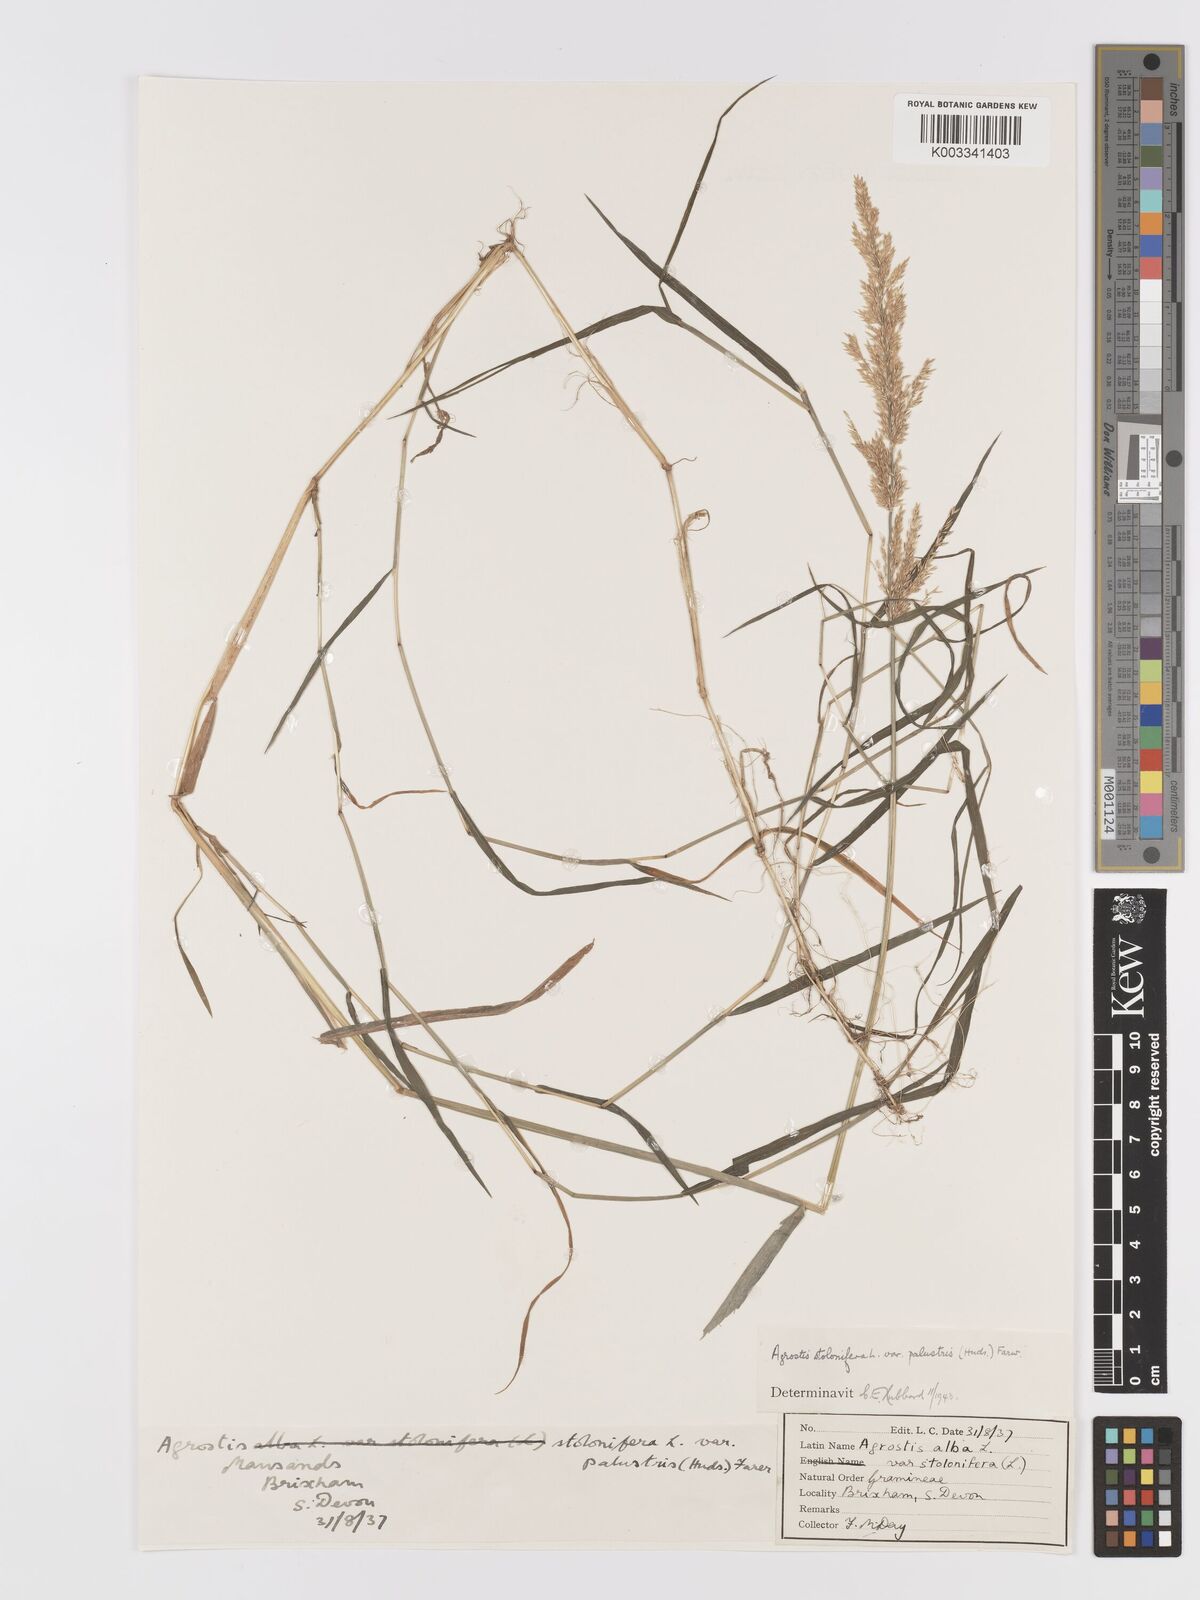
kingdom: Plantae
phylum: Tracheophyta
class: Liliopsida
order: Poales
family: Poaceae
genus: Agrostis
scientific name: Agrostis stolonifera
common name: Creeping bentgrass
